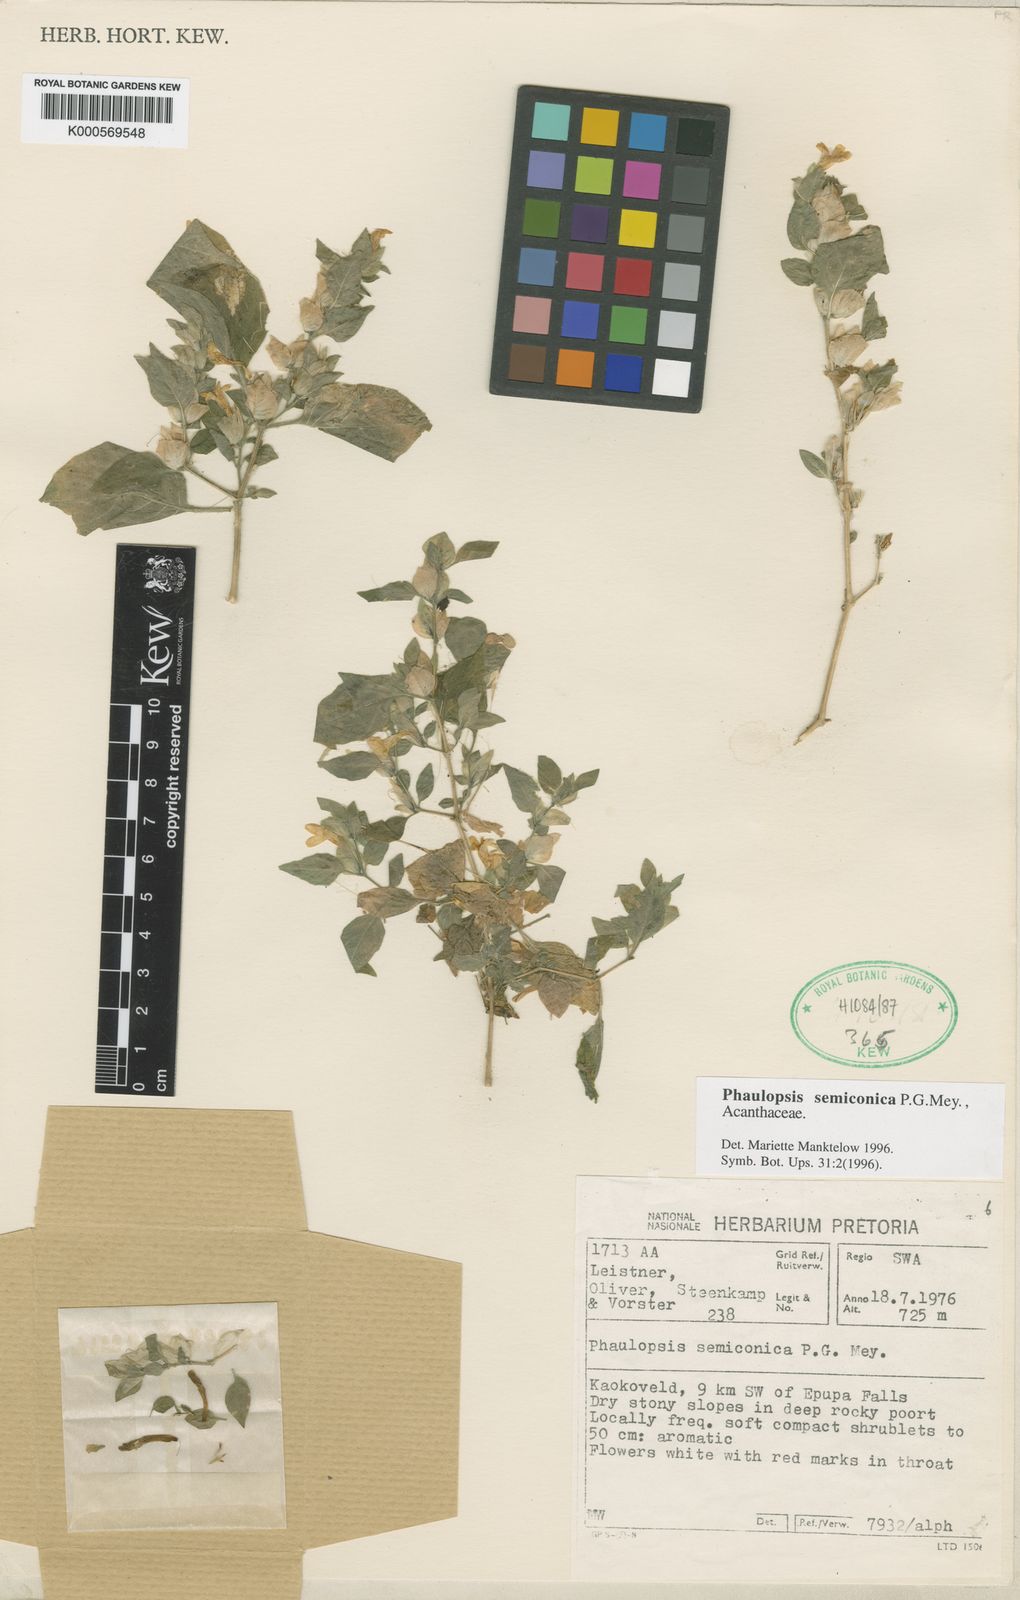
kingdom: Plantae
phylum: Tracheophyta
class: Magnoliopsida
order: Lamiales
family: Acanthaceae
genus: Phaulopsis
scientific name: Phaulopsis semiconica
